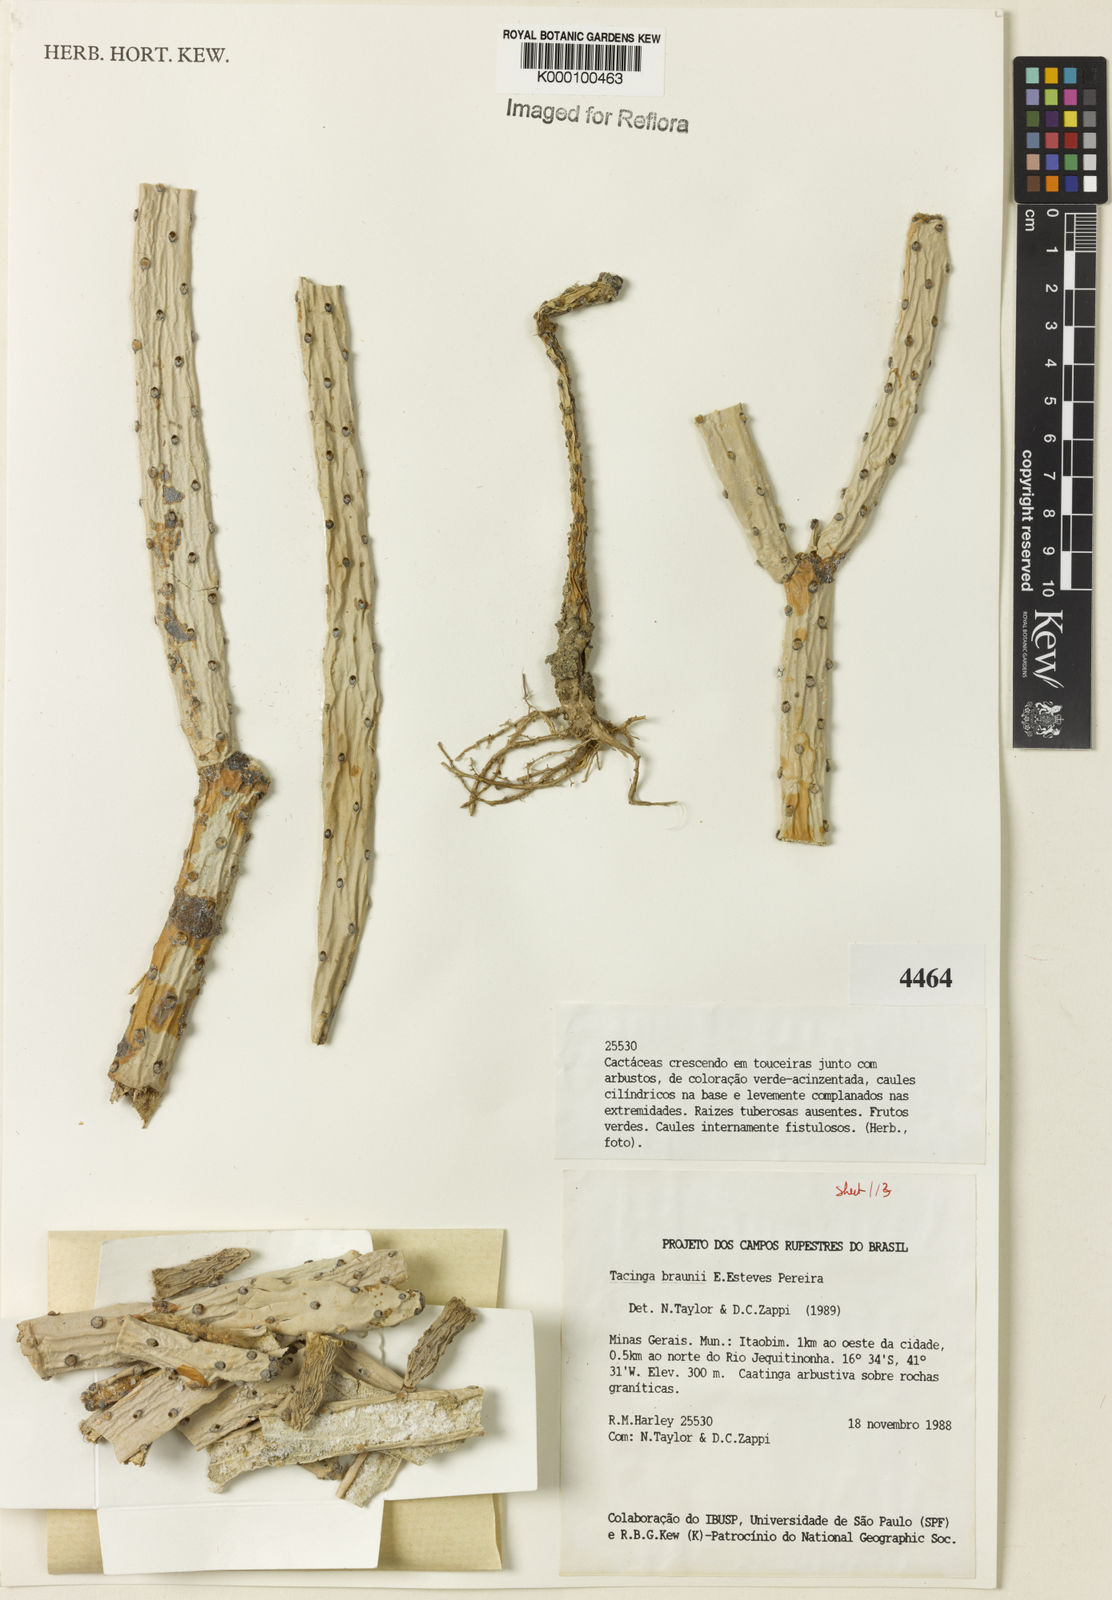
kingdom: Plantae
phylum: Tracheophyta
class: Magnoliopsida
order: Caryophyllales
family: Cactaceae
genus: Tacinga
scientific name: Tacinga braunii
